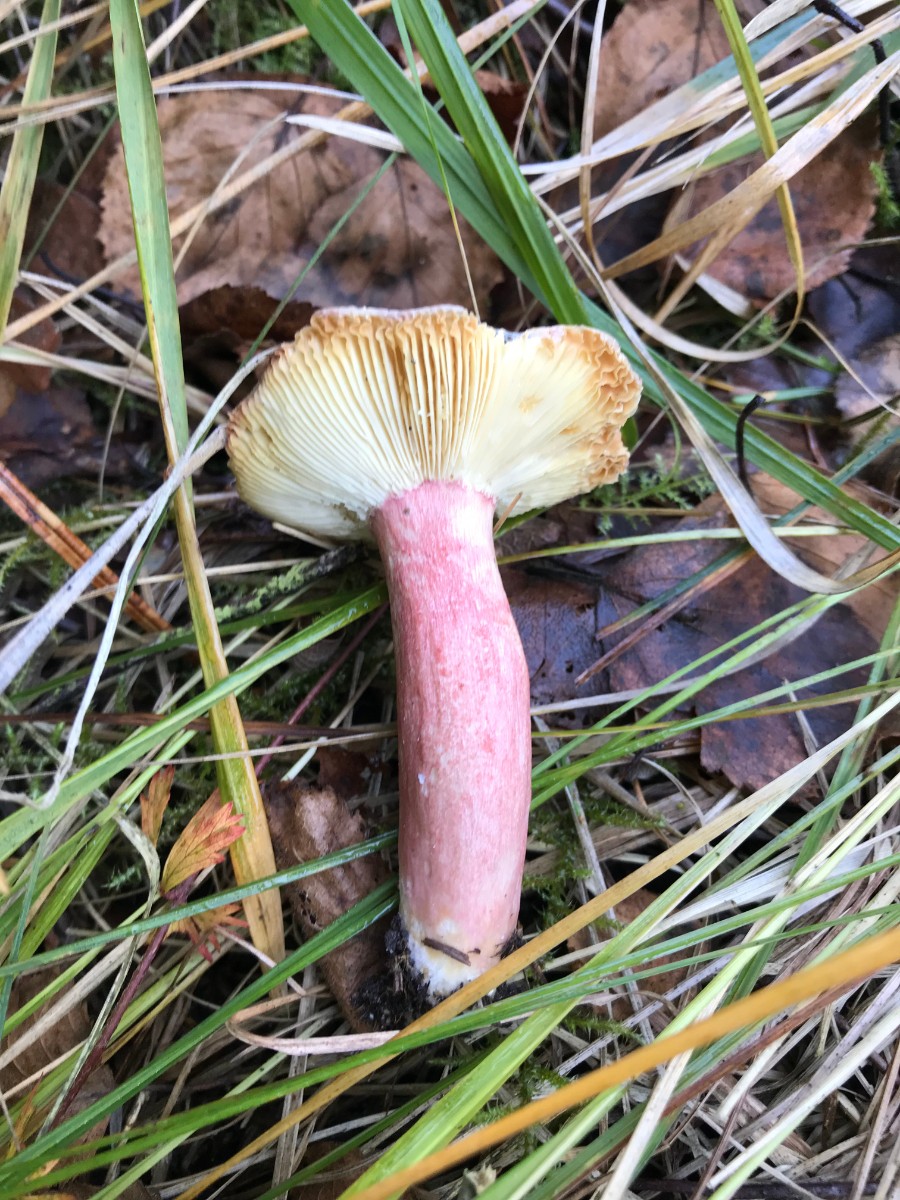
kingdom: Fungi
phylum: Basidiomycota
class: Agaricomycetes
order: Russulales
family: Russulaceae
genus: Russula
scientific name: Russula queletii
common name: Quélets skørhat
